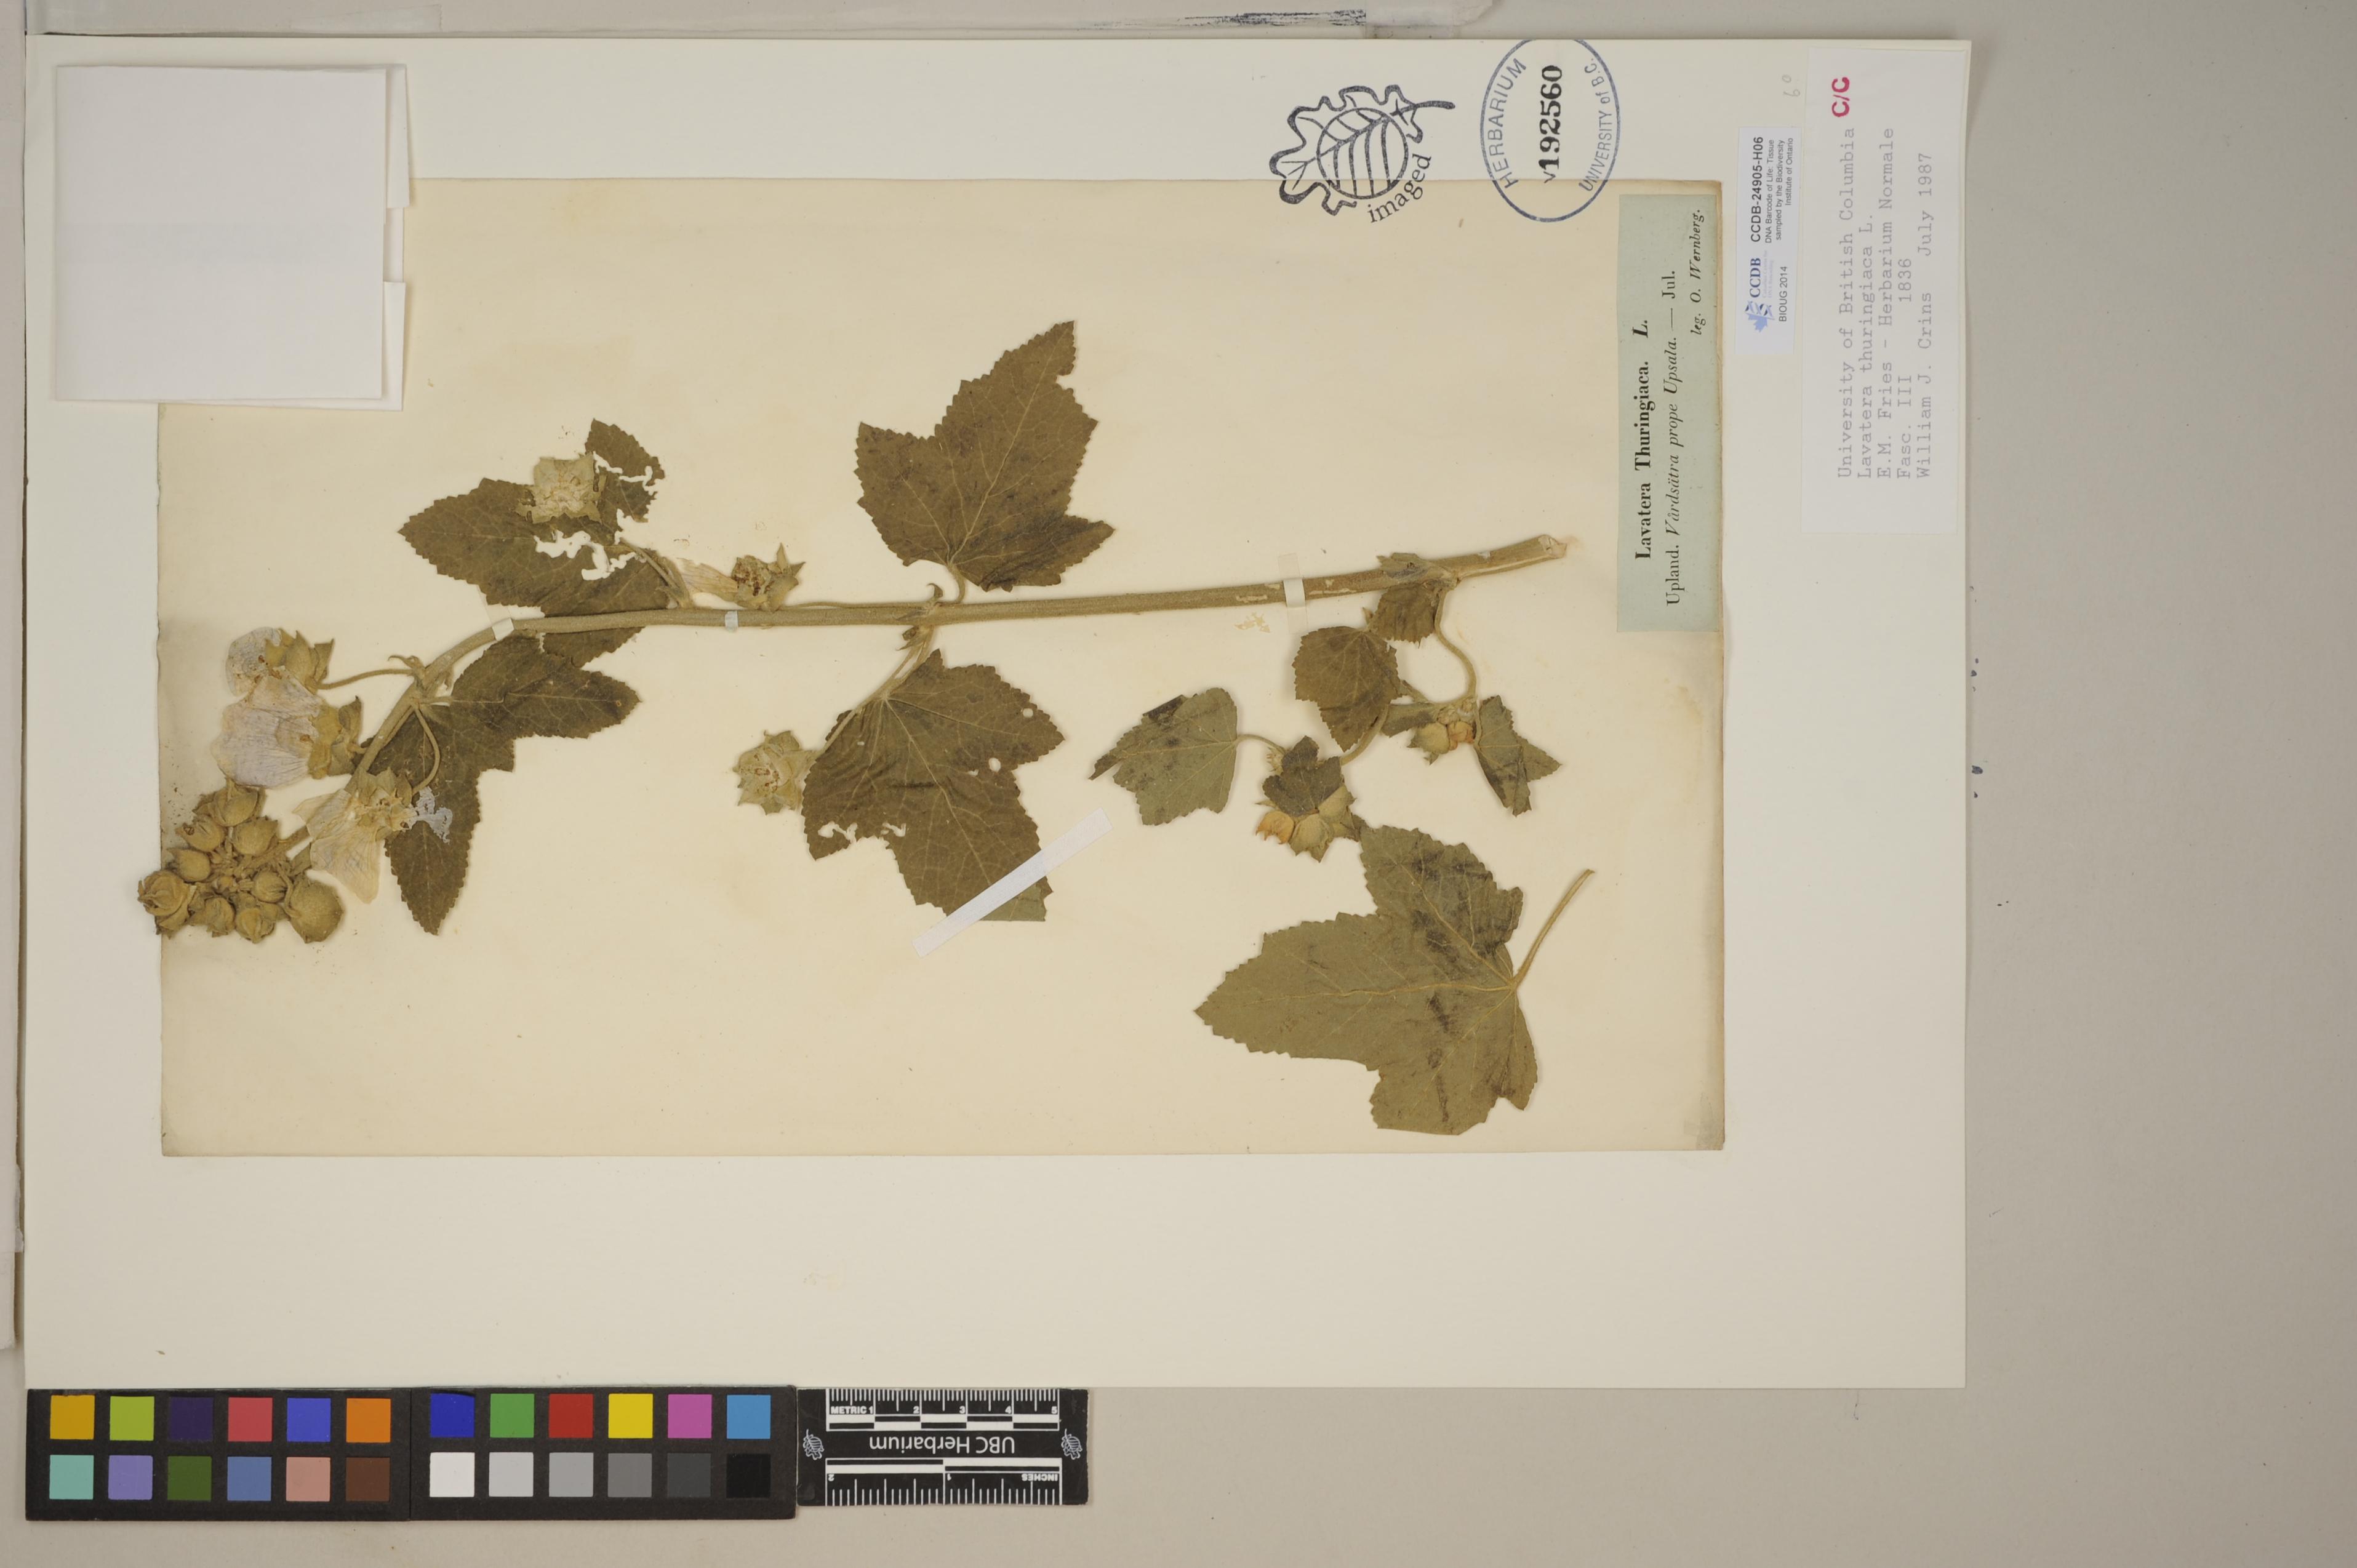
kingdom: Plantae
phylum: Tracheophyta
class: Magnoliopsida
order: Malvales
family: Malvaceae
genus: Malva
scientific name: Malva
